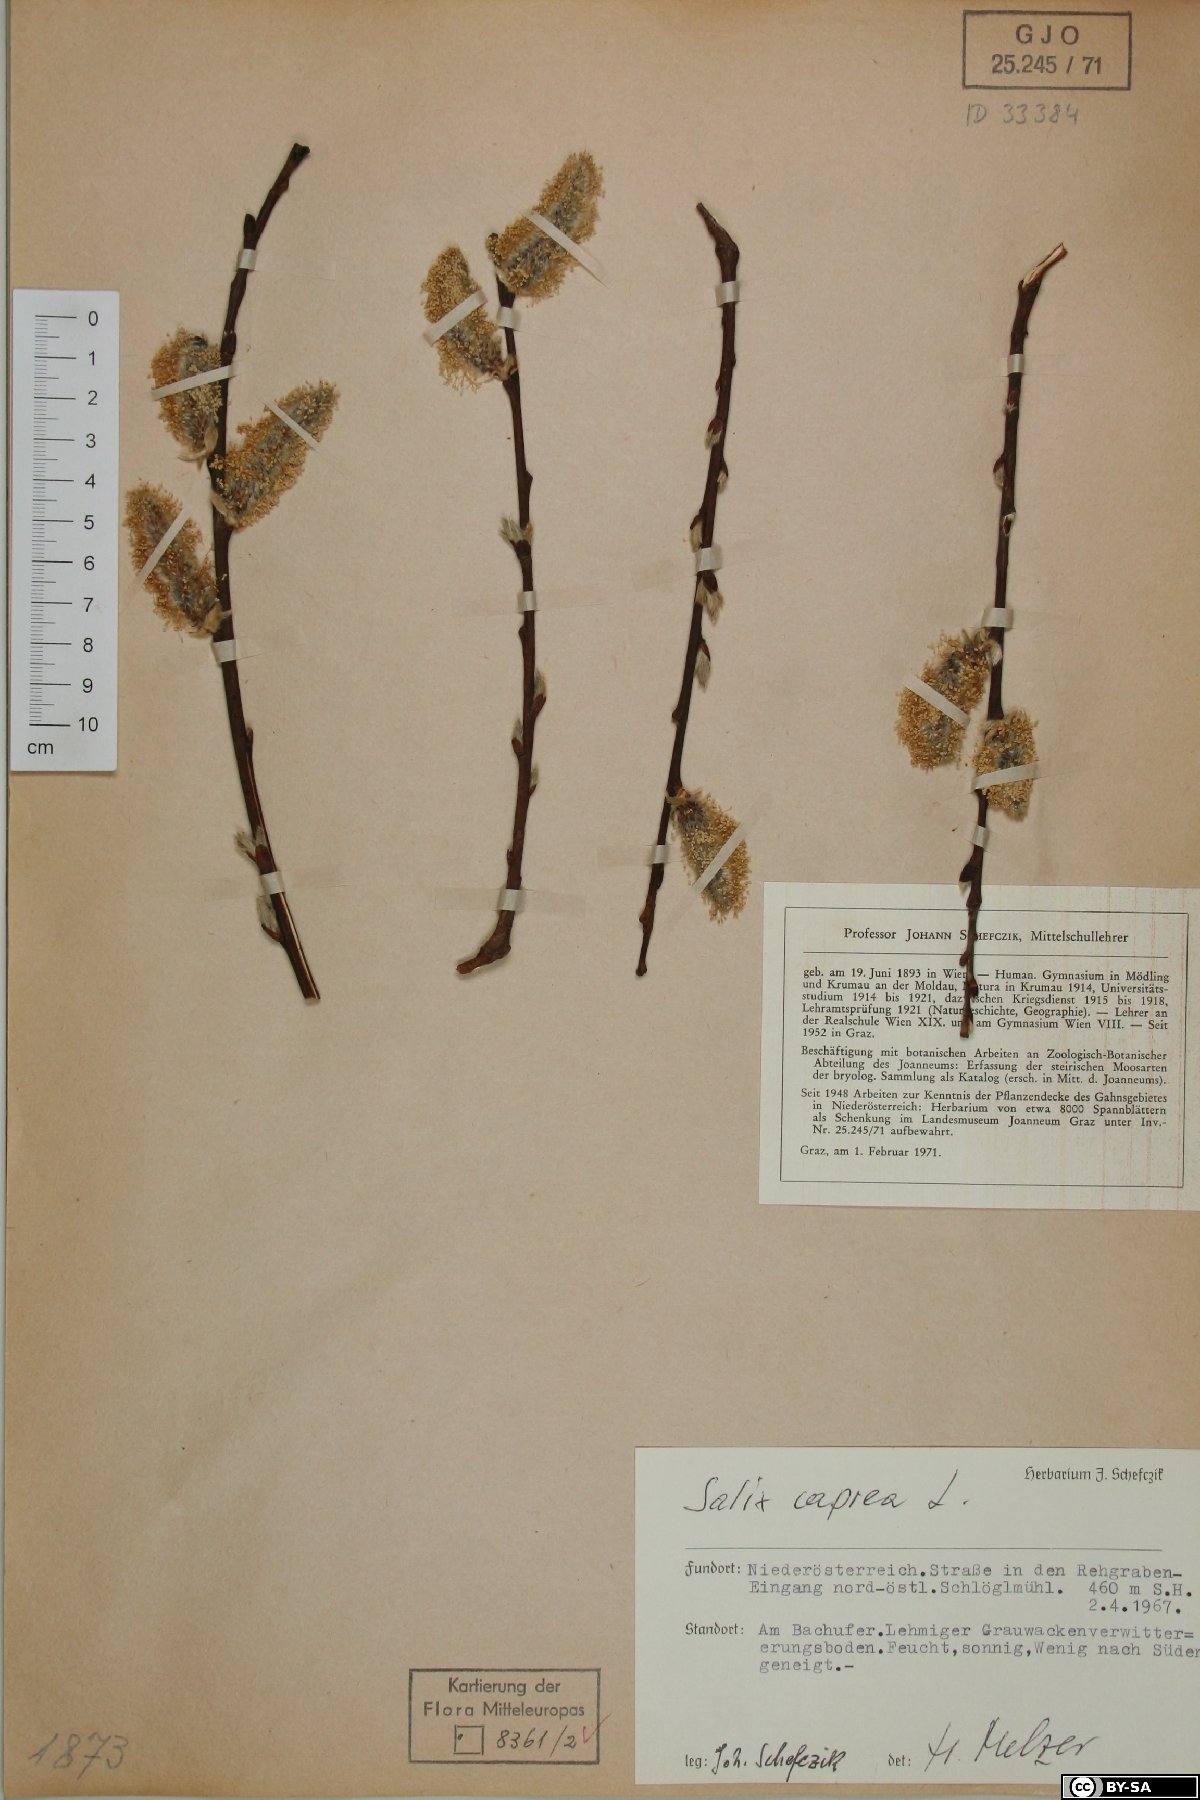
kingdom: Plantae
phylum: Tracheophyta
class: Magnoliopsida
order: Malpighiales
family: Salicaceae
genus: Salix
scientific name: Salix caprea
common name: Goat willow
